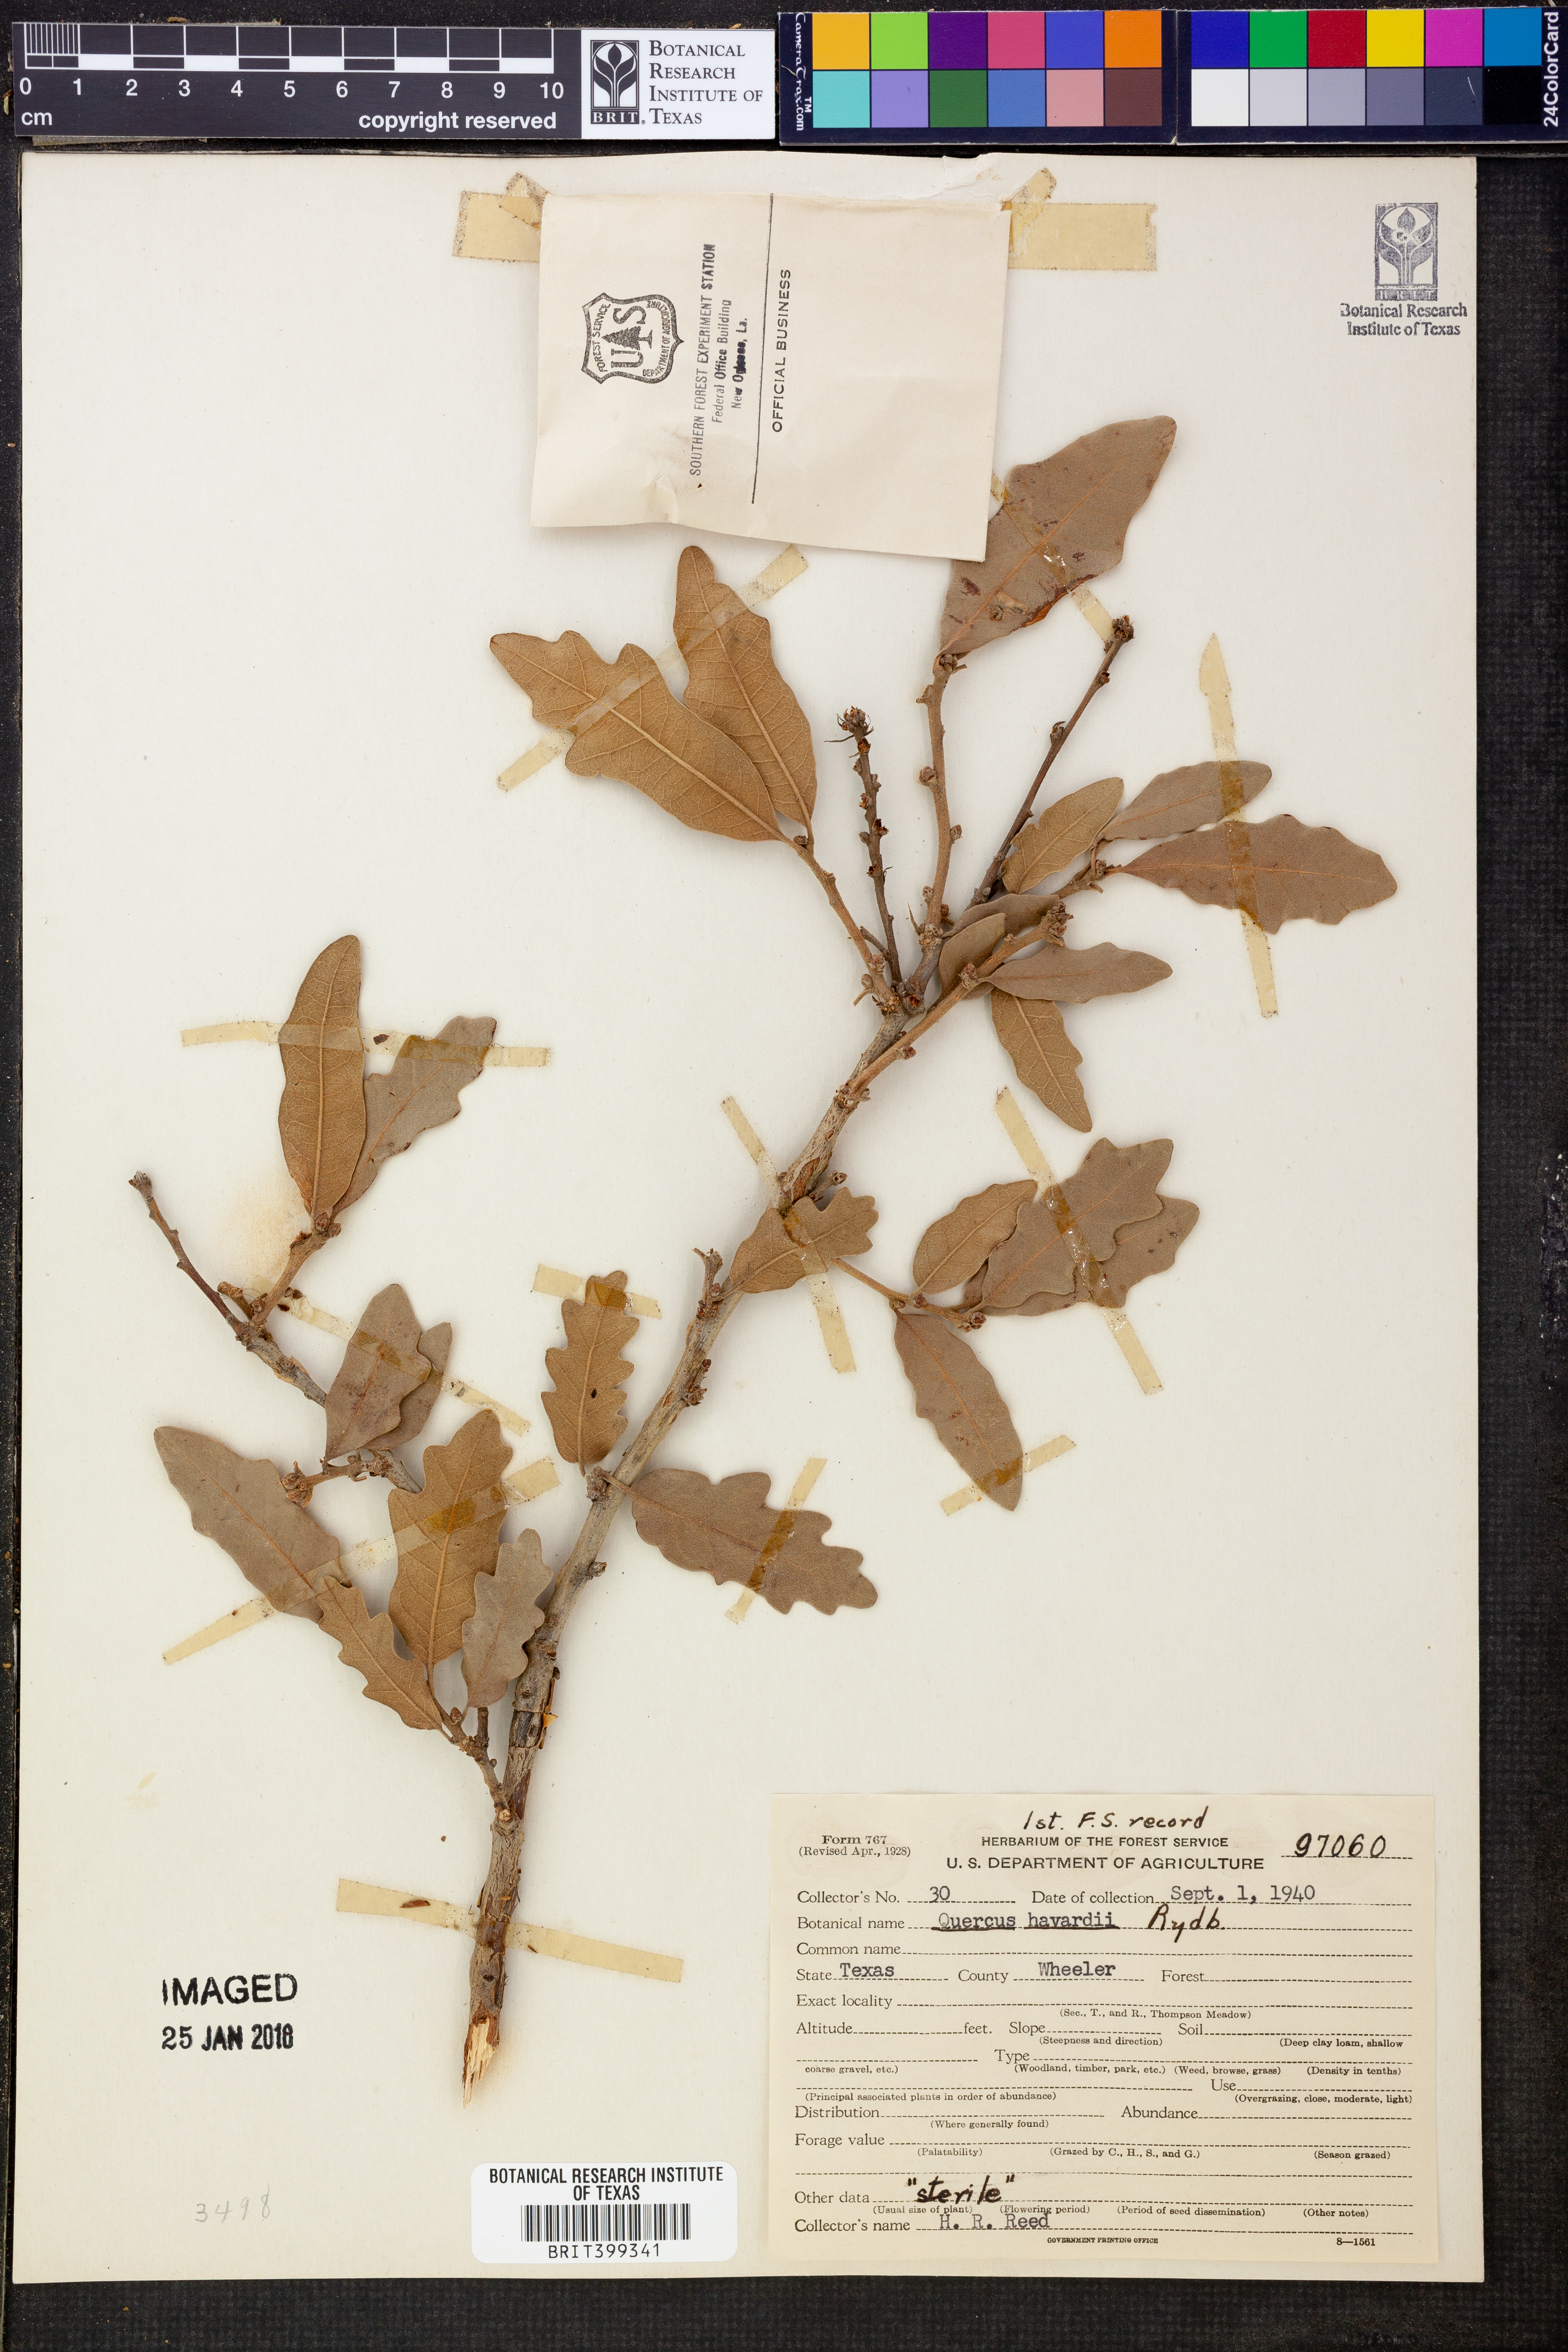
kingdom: Plantae
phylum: Tracheophyta
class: Magnoliopsida
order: Fagales
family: Fagaceae
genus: Quercus
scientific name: Quercus havardii
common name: Shinnery oak
